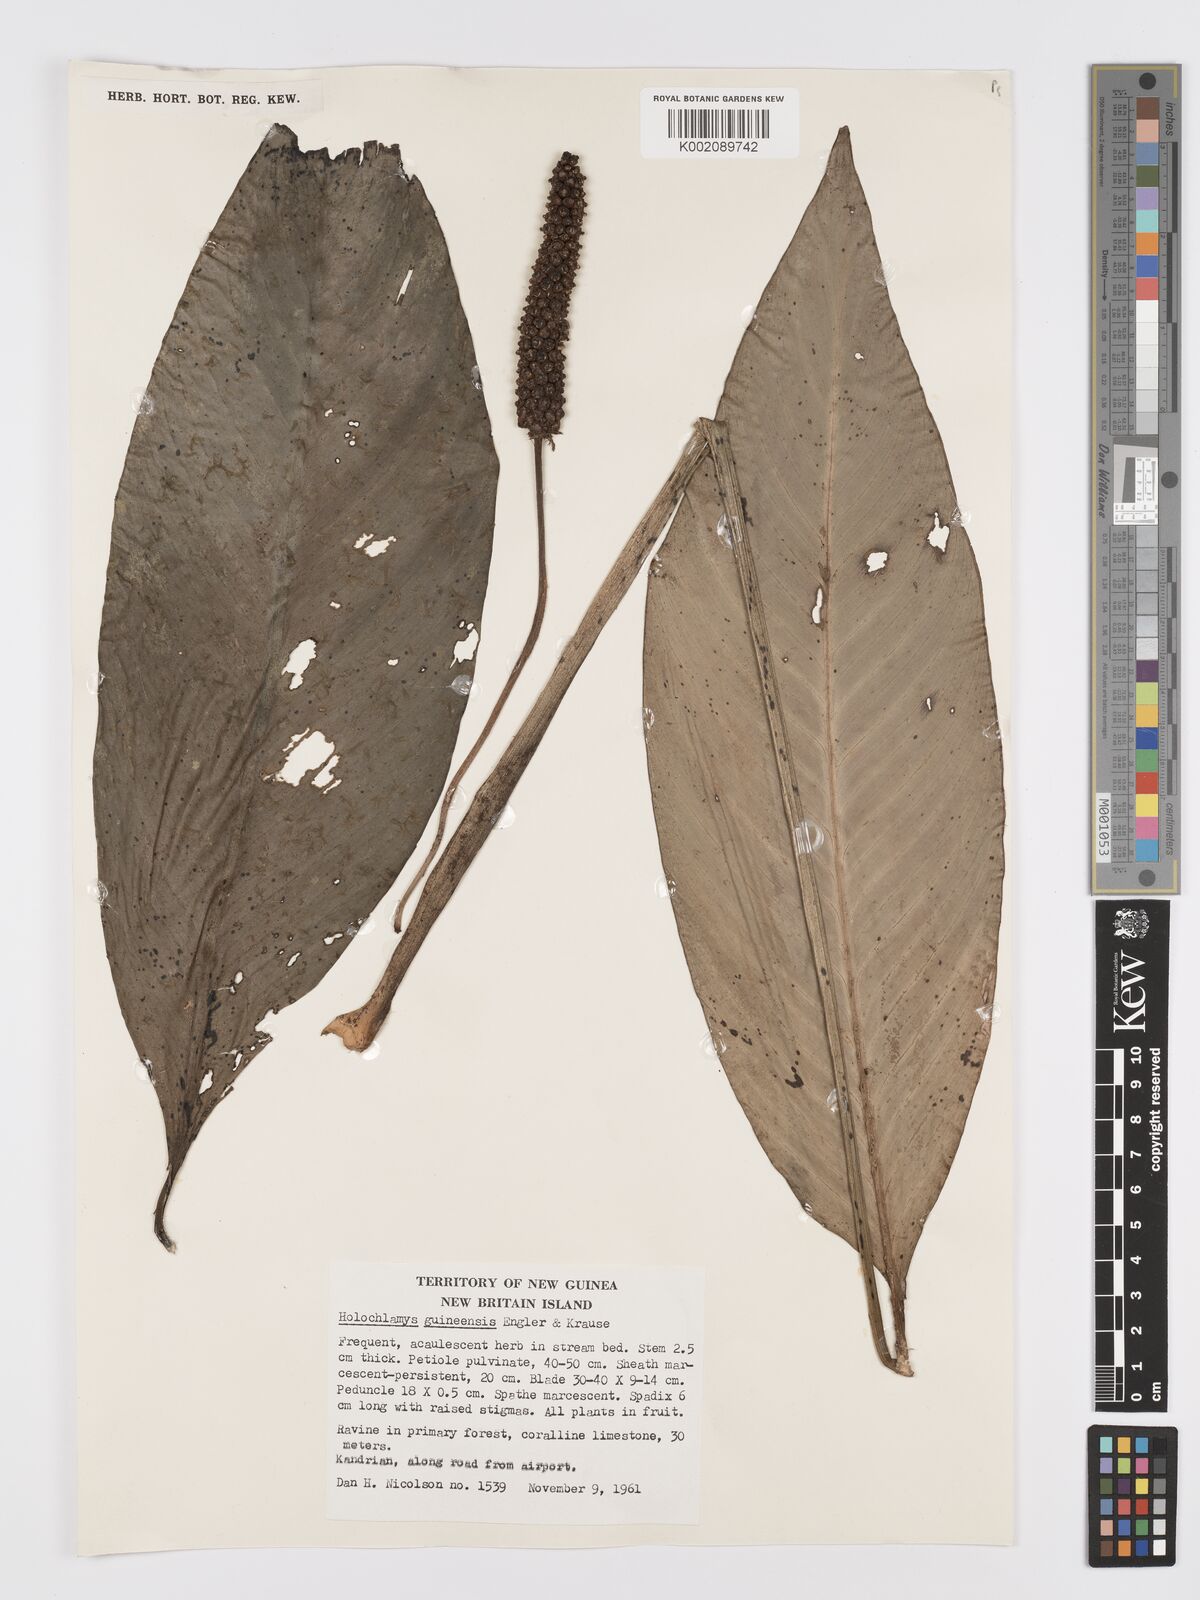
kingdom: Plantae
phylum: Tracheophyta
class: Liliopsida
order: Alismatales
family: Araceae
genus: Holochlamys
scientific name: Holochlamys beccarii
